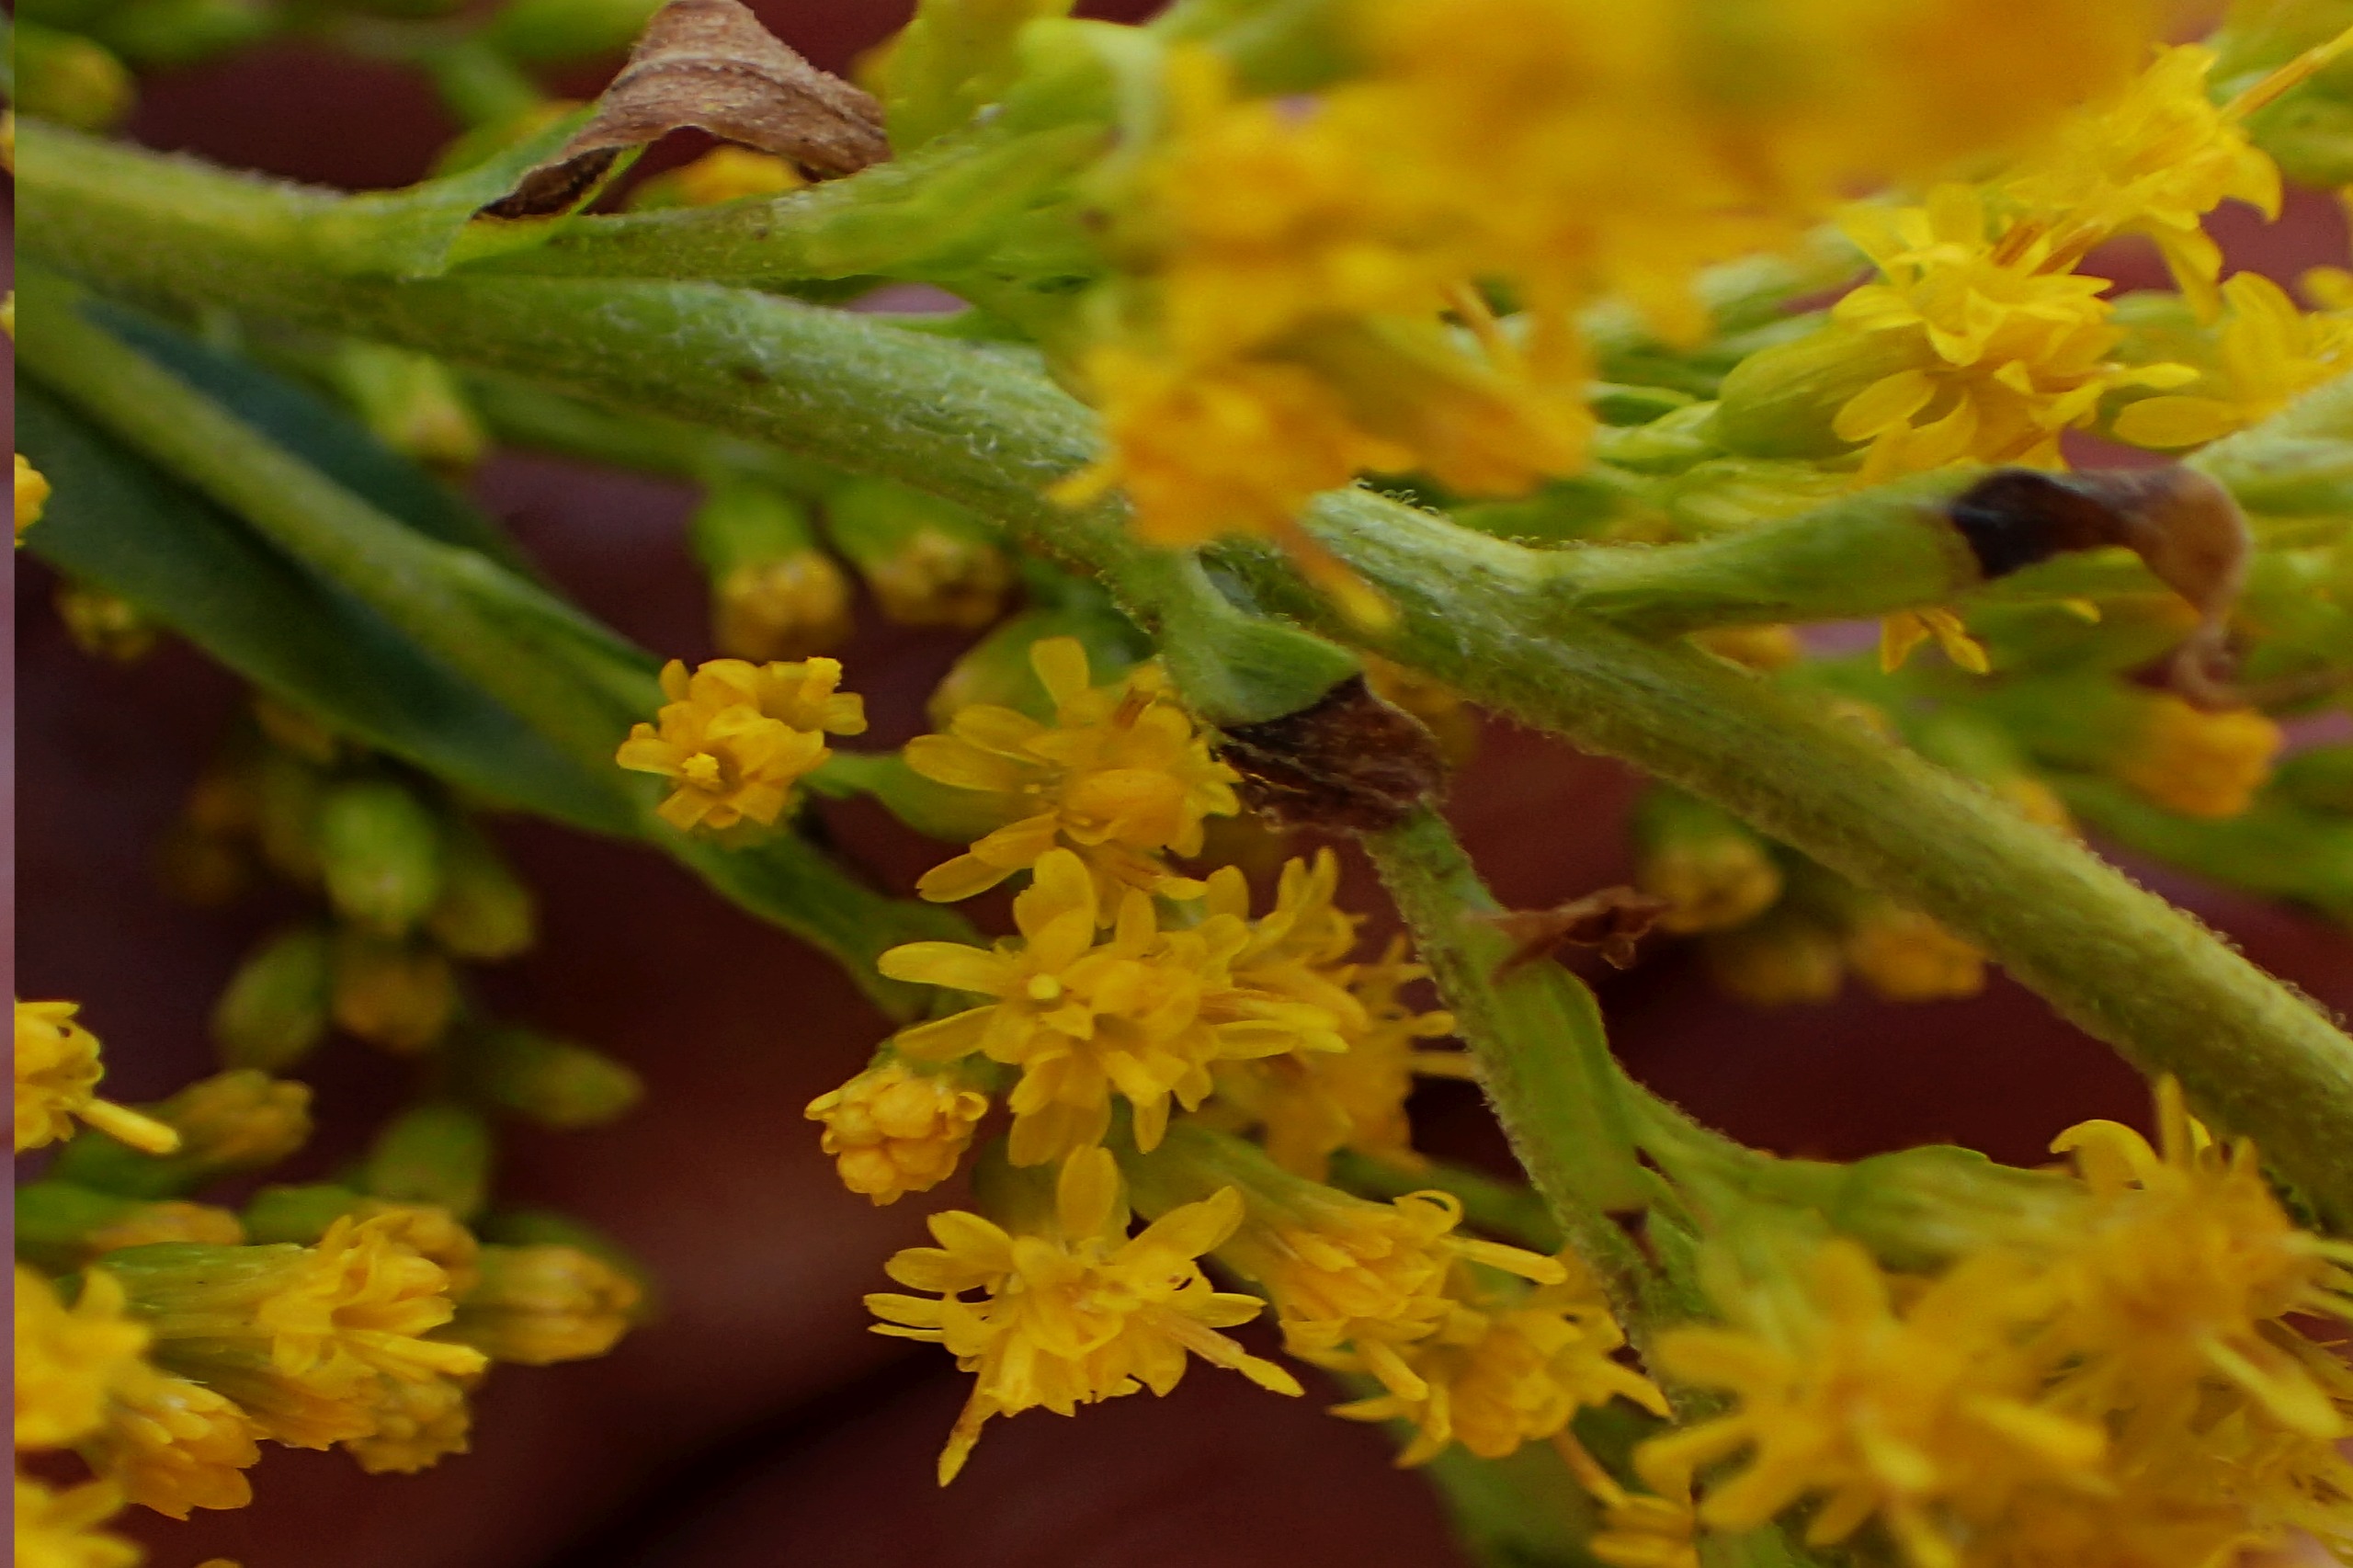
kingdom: Plantae
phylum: Tracheophyta
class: Magnoliopsida
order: Asterales
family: Asteraceae
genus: Solidago
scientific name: Solidago canadensis
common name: Kanadisk gyldenris
